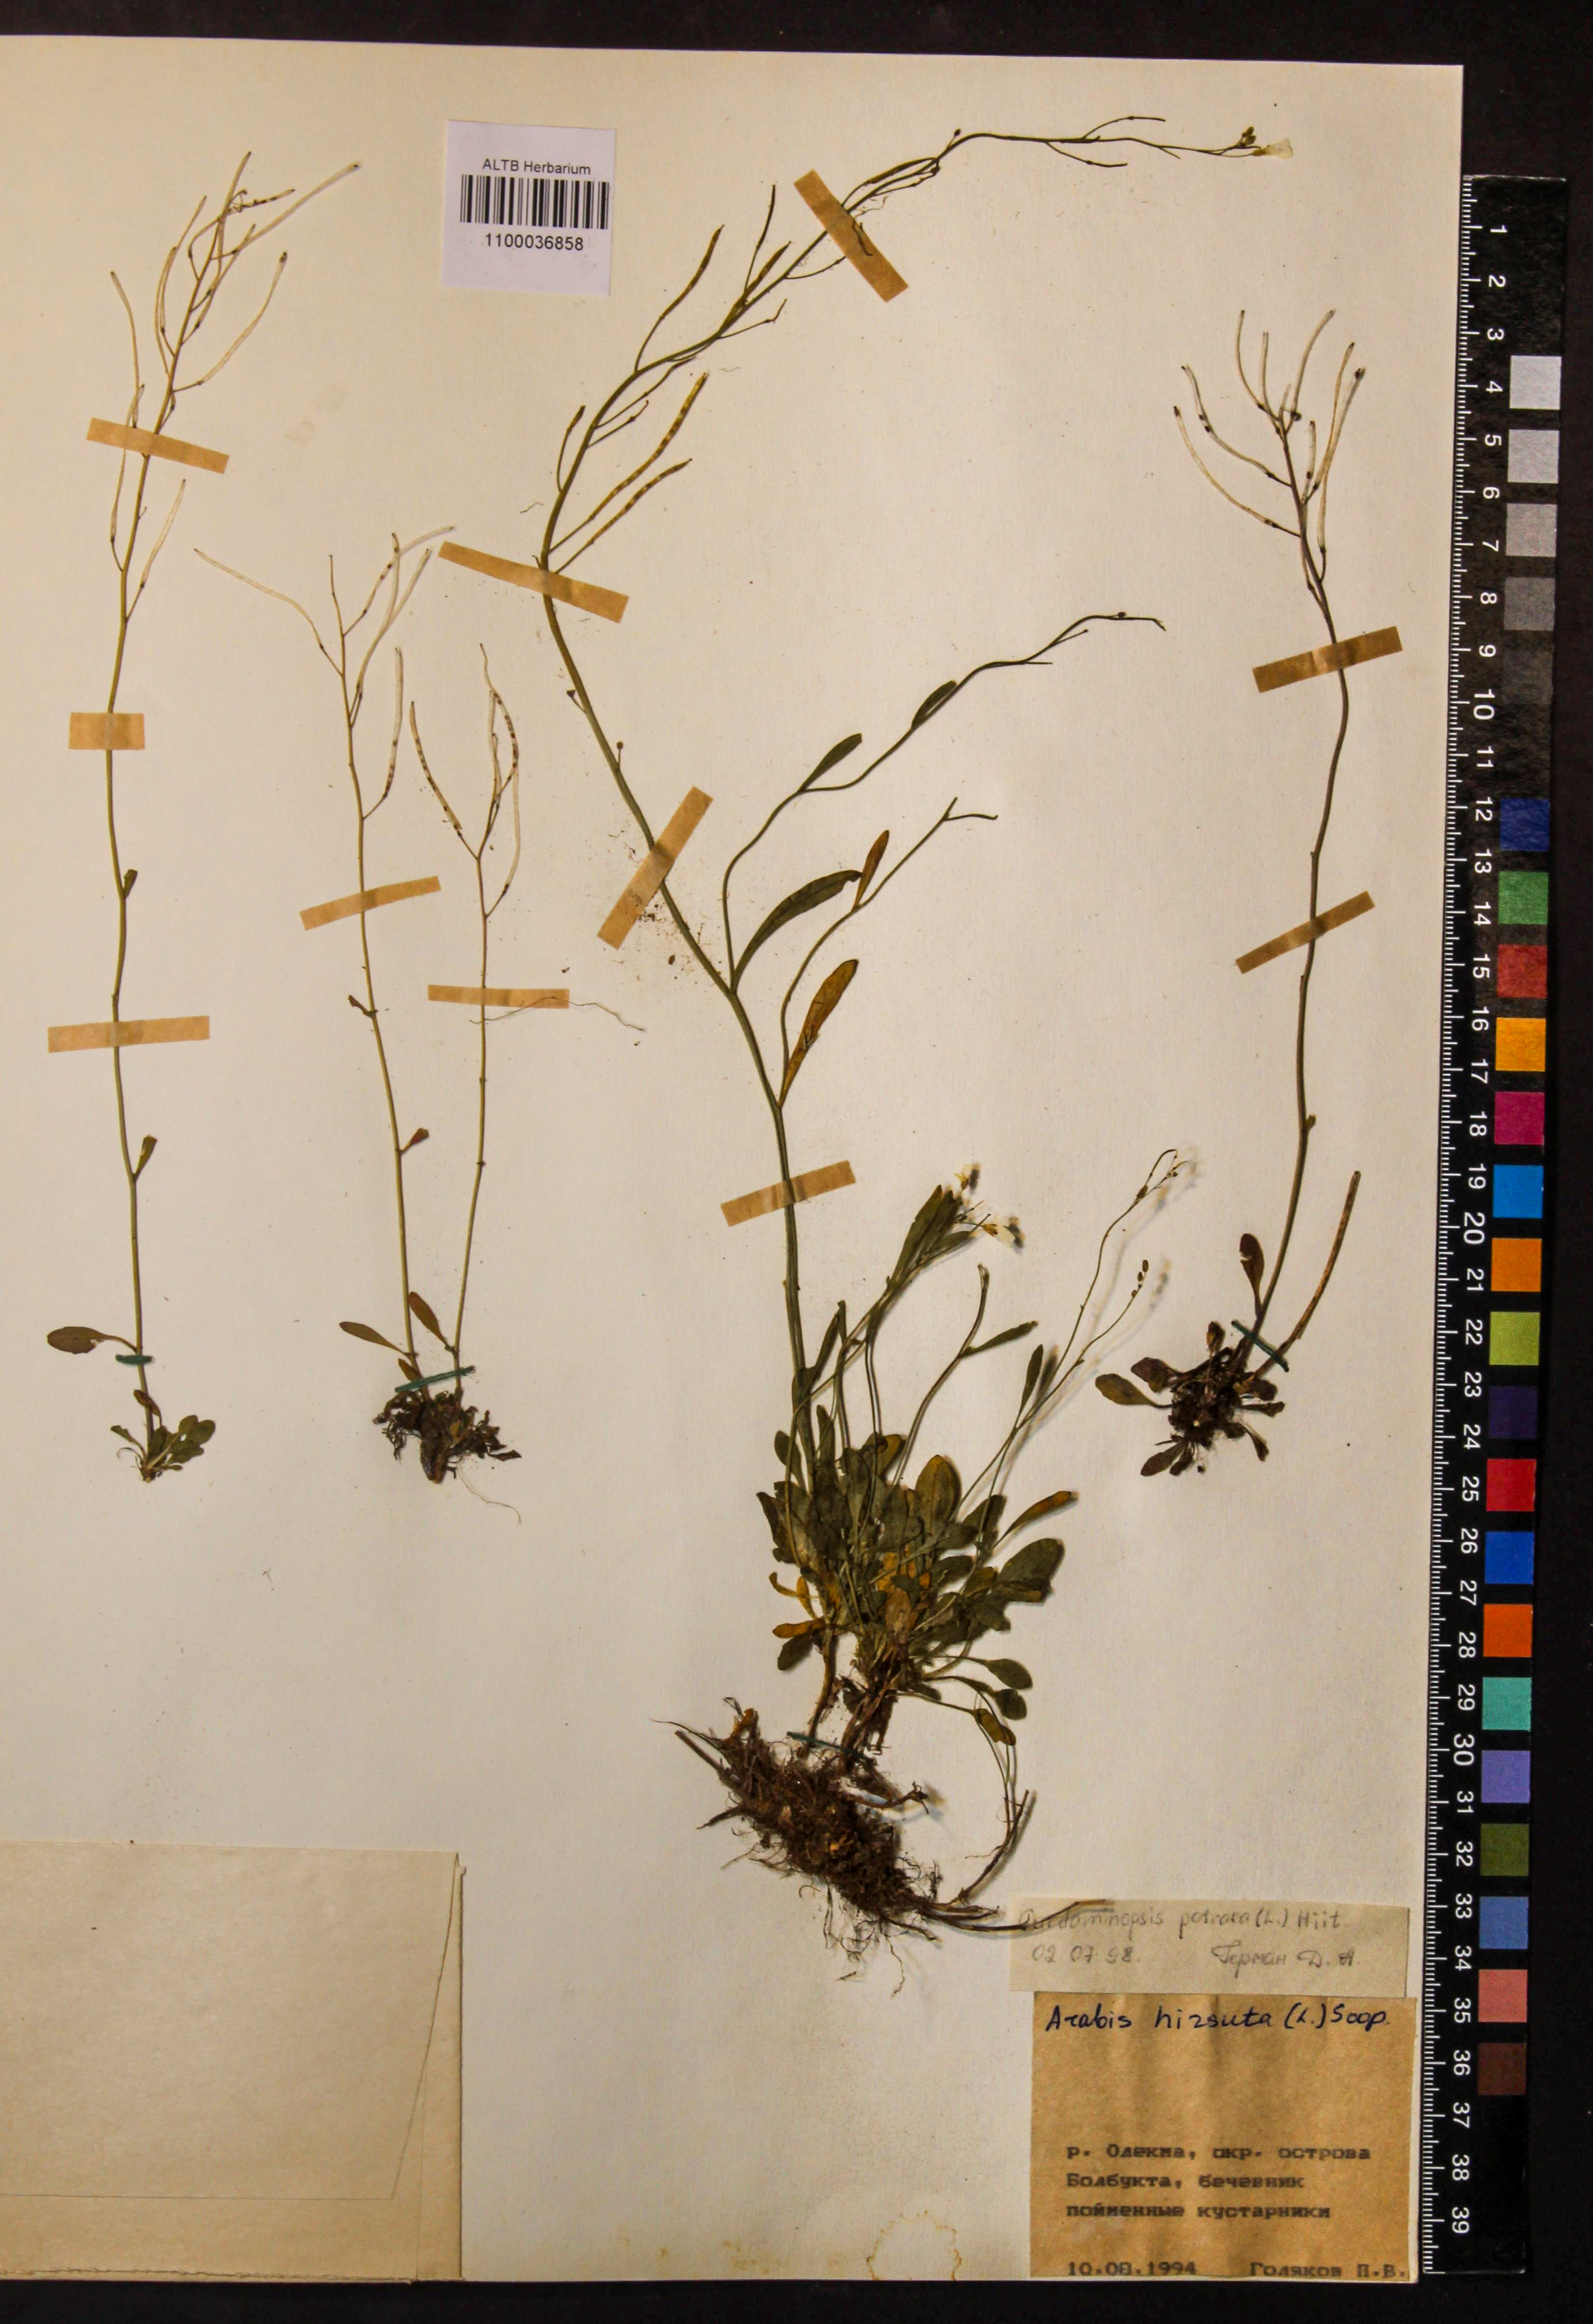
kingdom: Plantae
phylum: Tracheophyta
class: Magnoliopsida
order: Brassicales
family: Brassicaceae
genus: Arabidopsis
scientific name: Arabidopsis lyrata
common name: Lyrate rockcress
